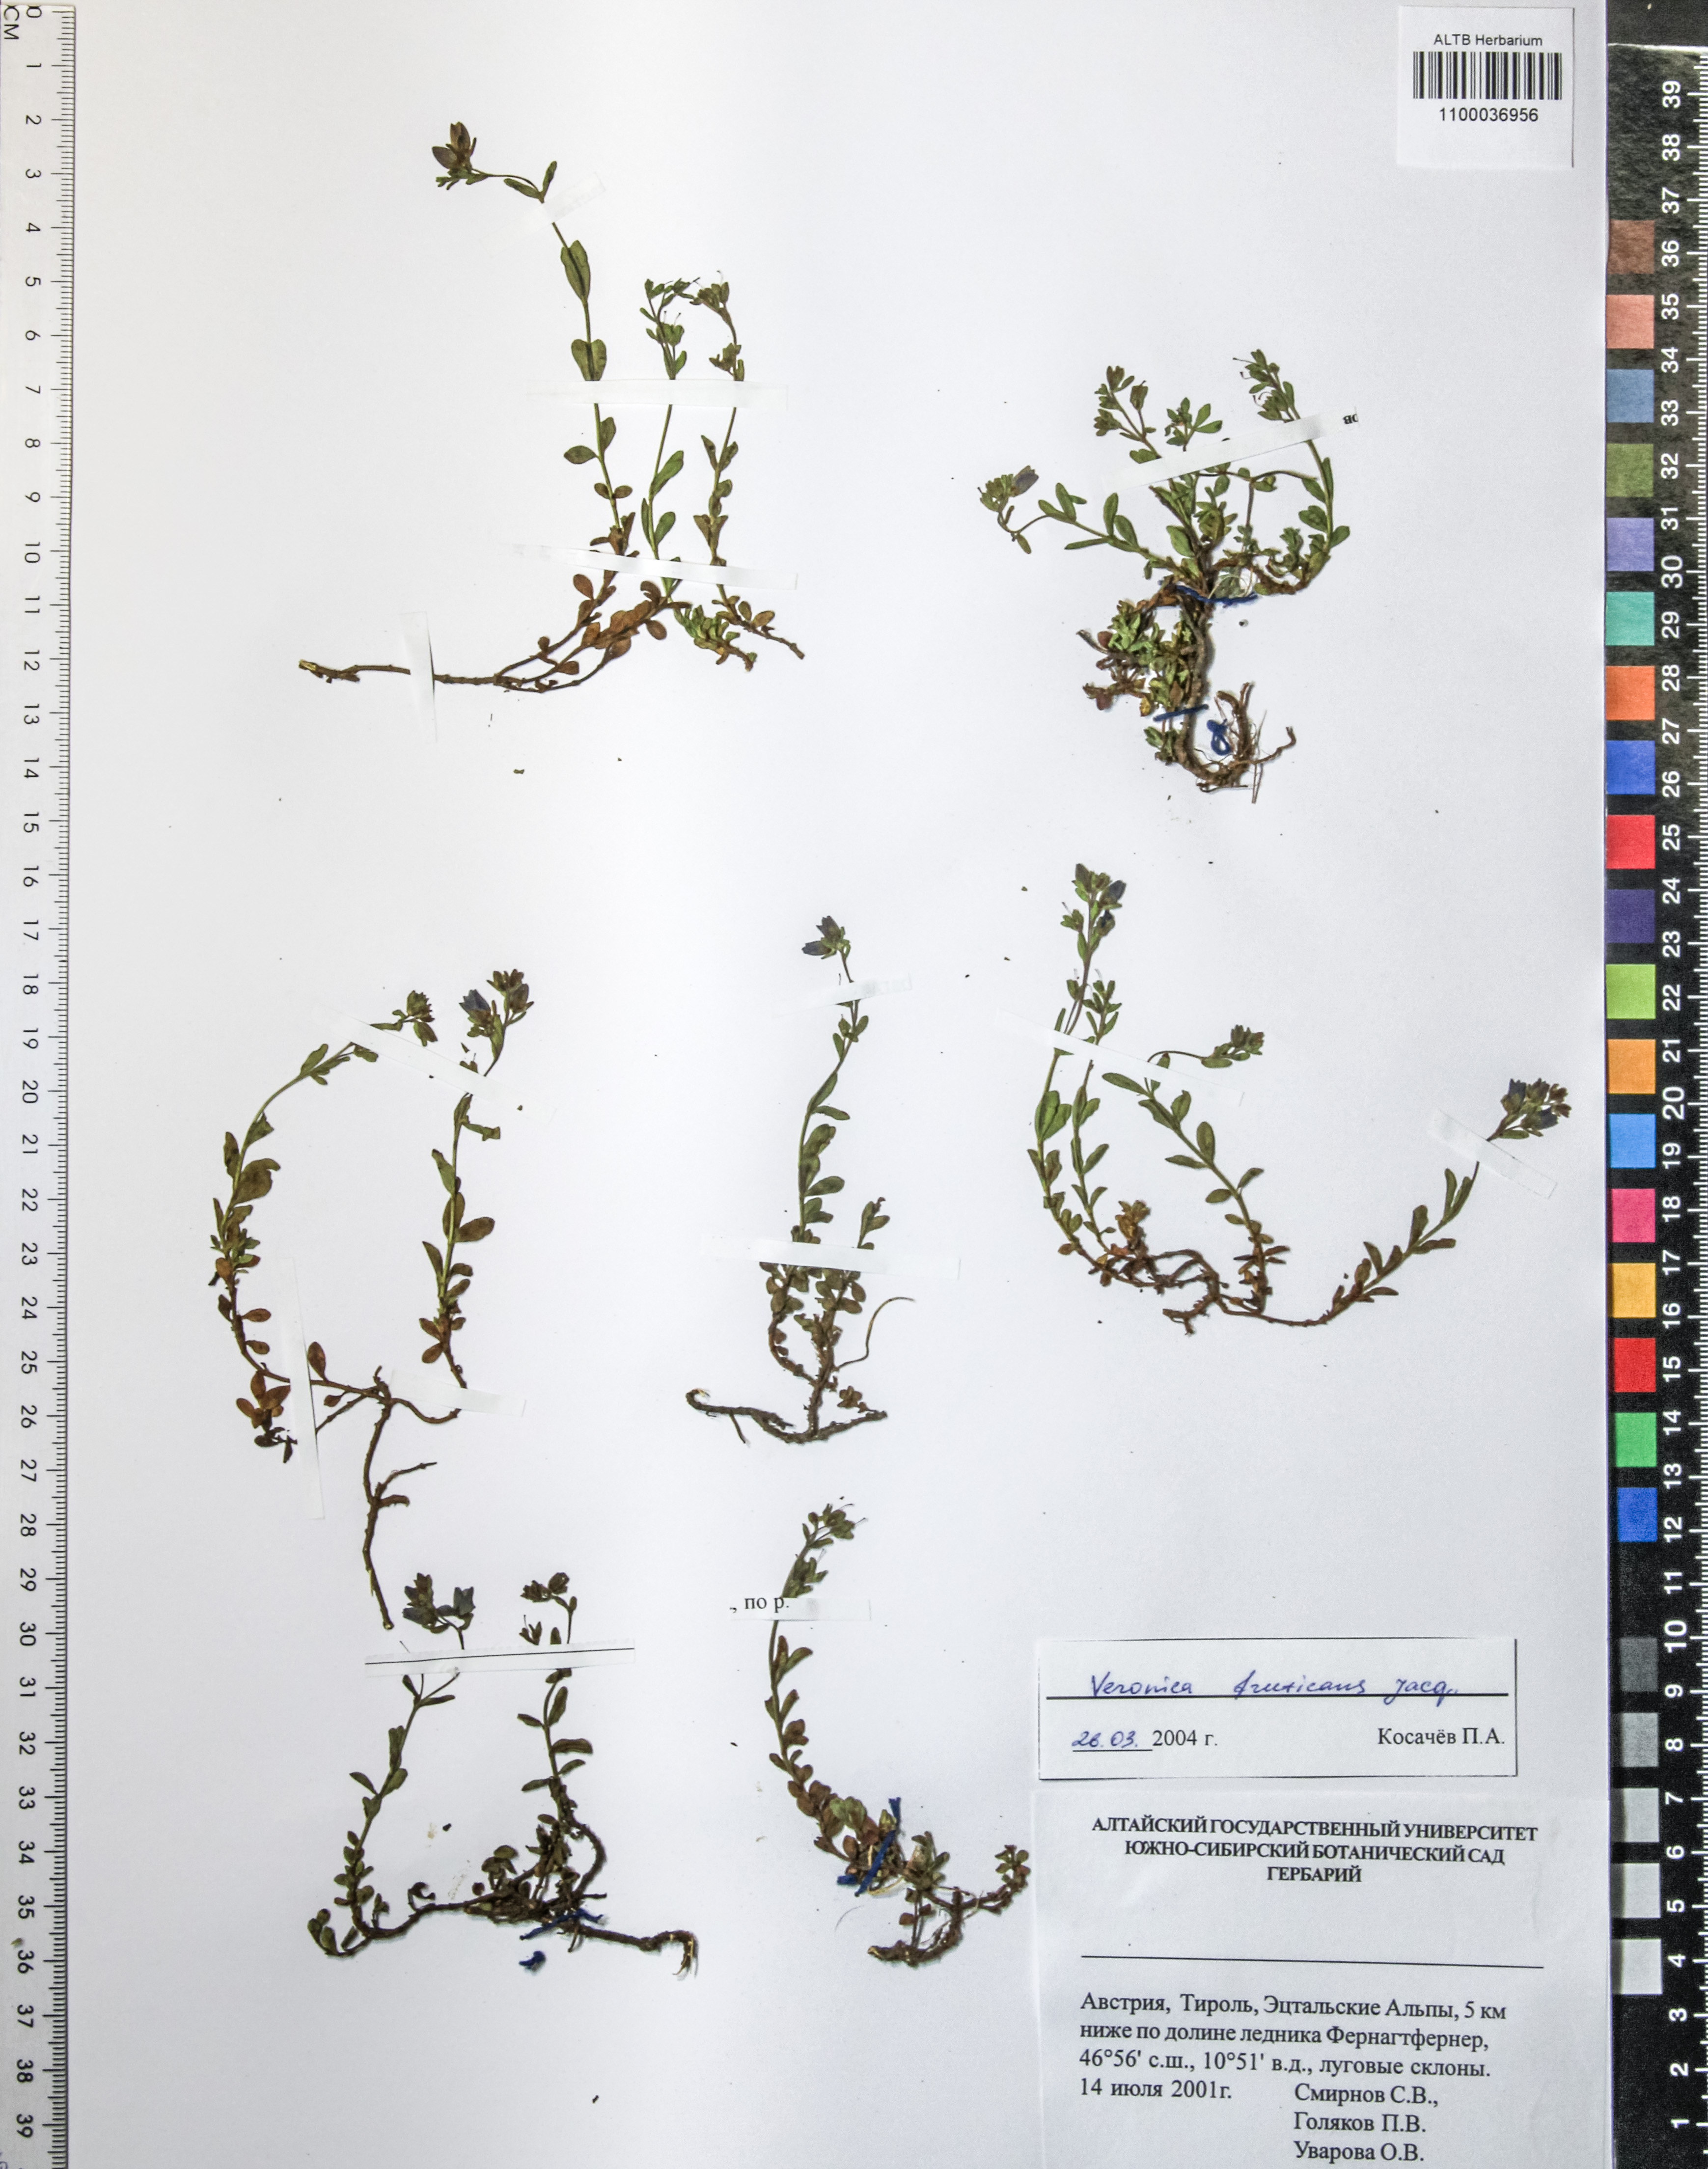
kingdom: Plantae
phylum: Tracheophyta
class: Magnoliopsida
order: Lamiales
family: Plantaginaceae
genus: Veronica
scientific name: Veronica fruticans
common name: Rock speedwell
